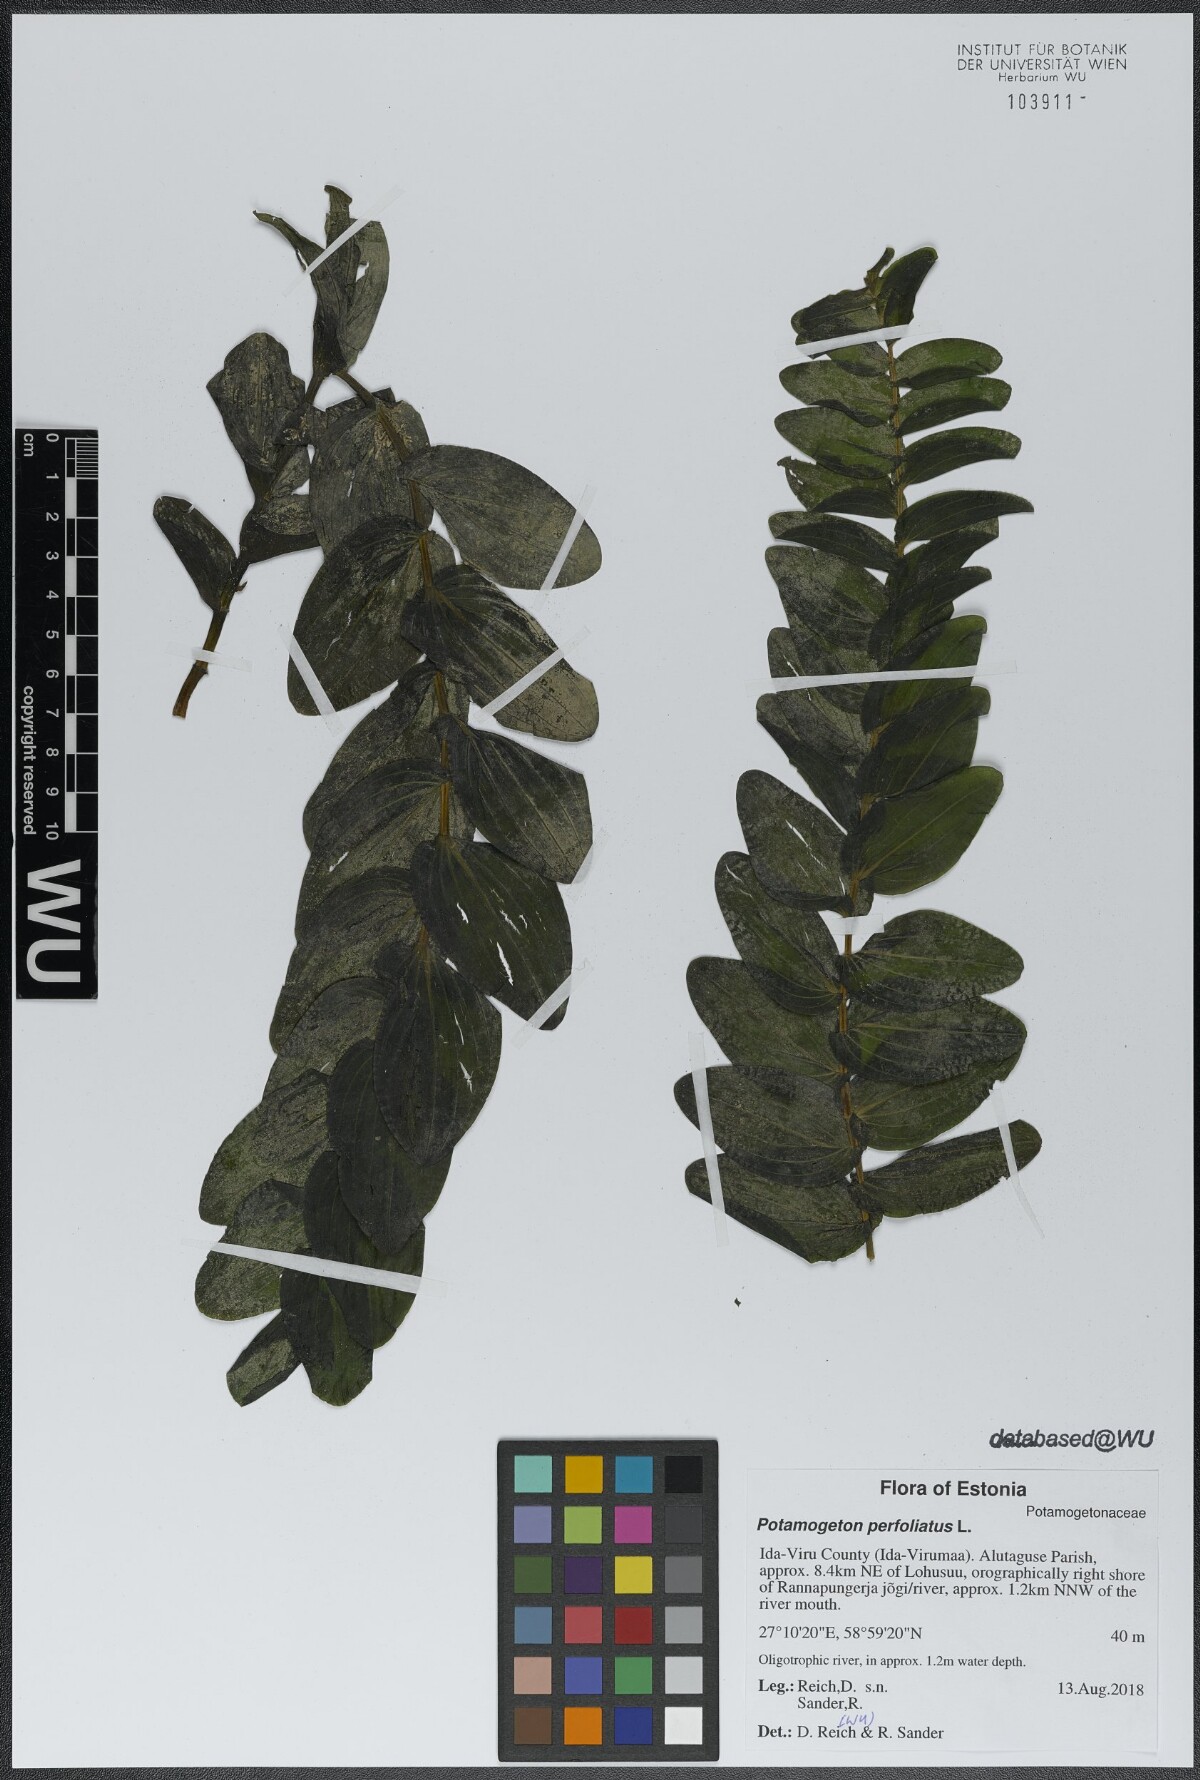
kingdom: Plantae
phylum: Tracheophyta
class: Liliopsida
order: Alismatales
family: Potamogetonaceae
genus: Potamogeton
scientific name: Potamogeton perfoliatus
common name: Perfoliate pondweed
